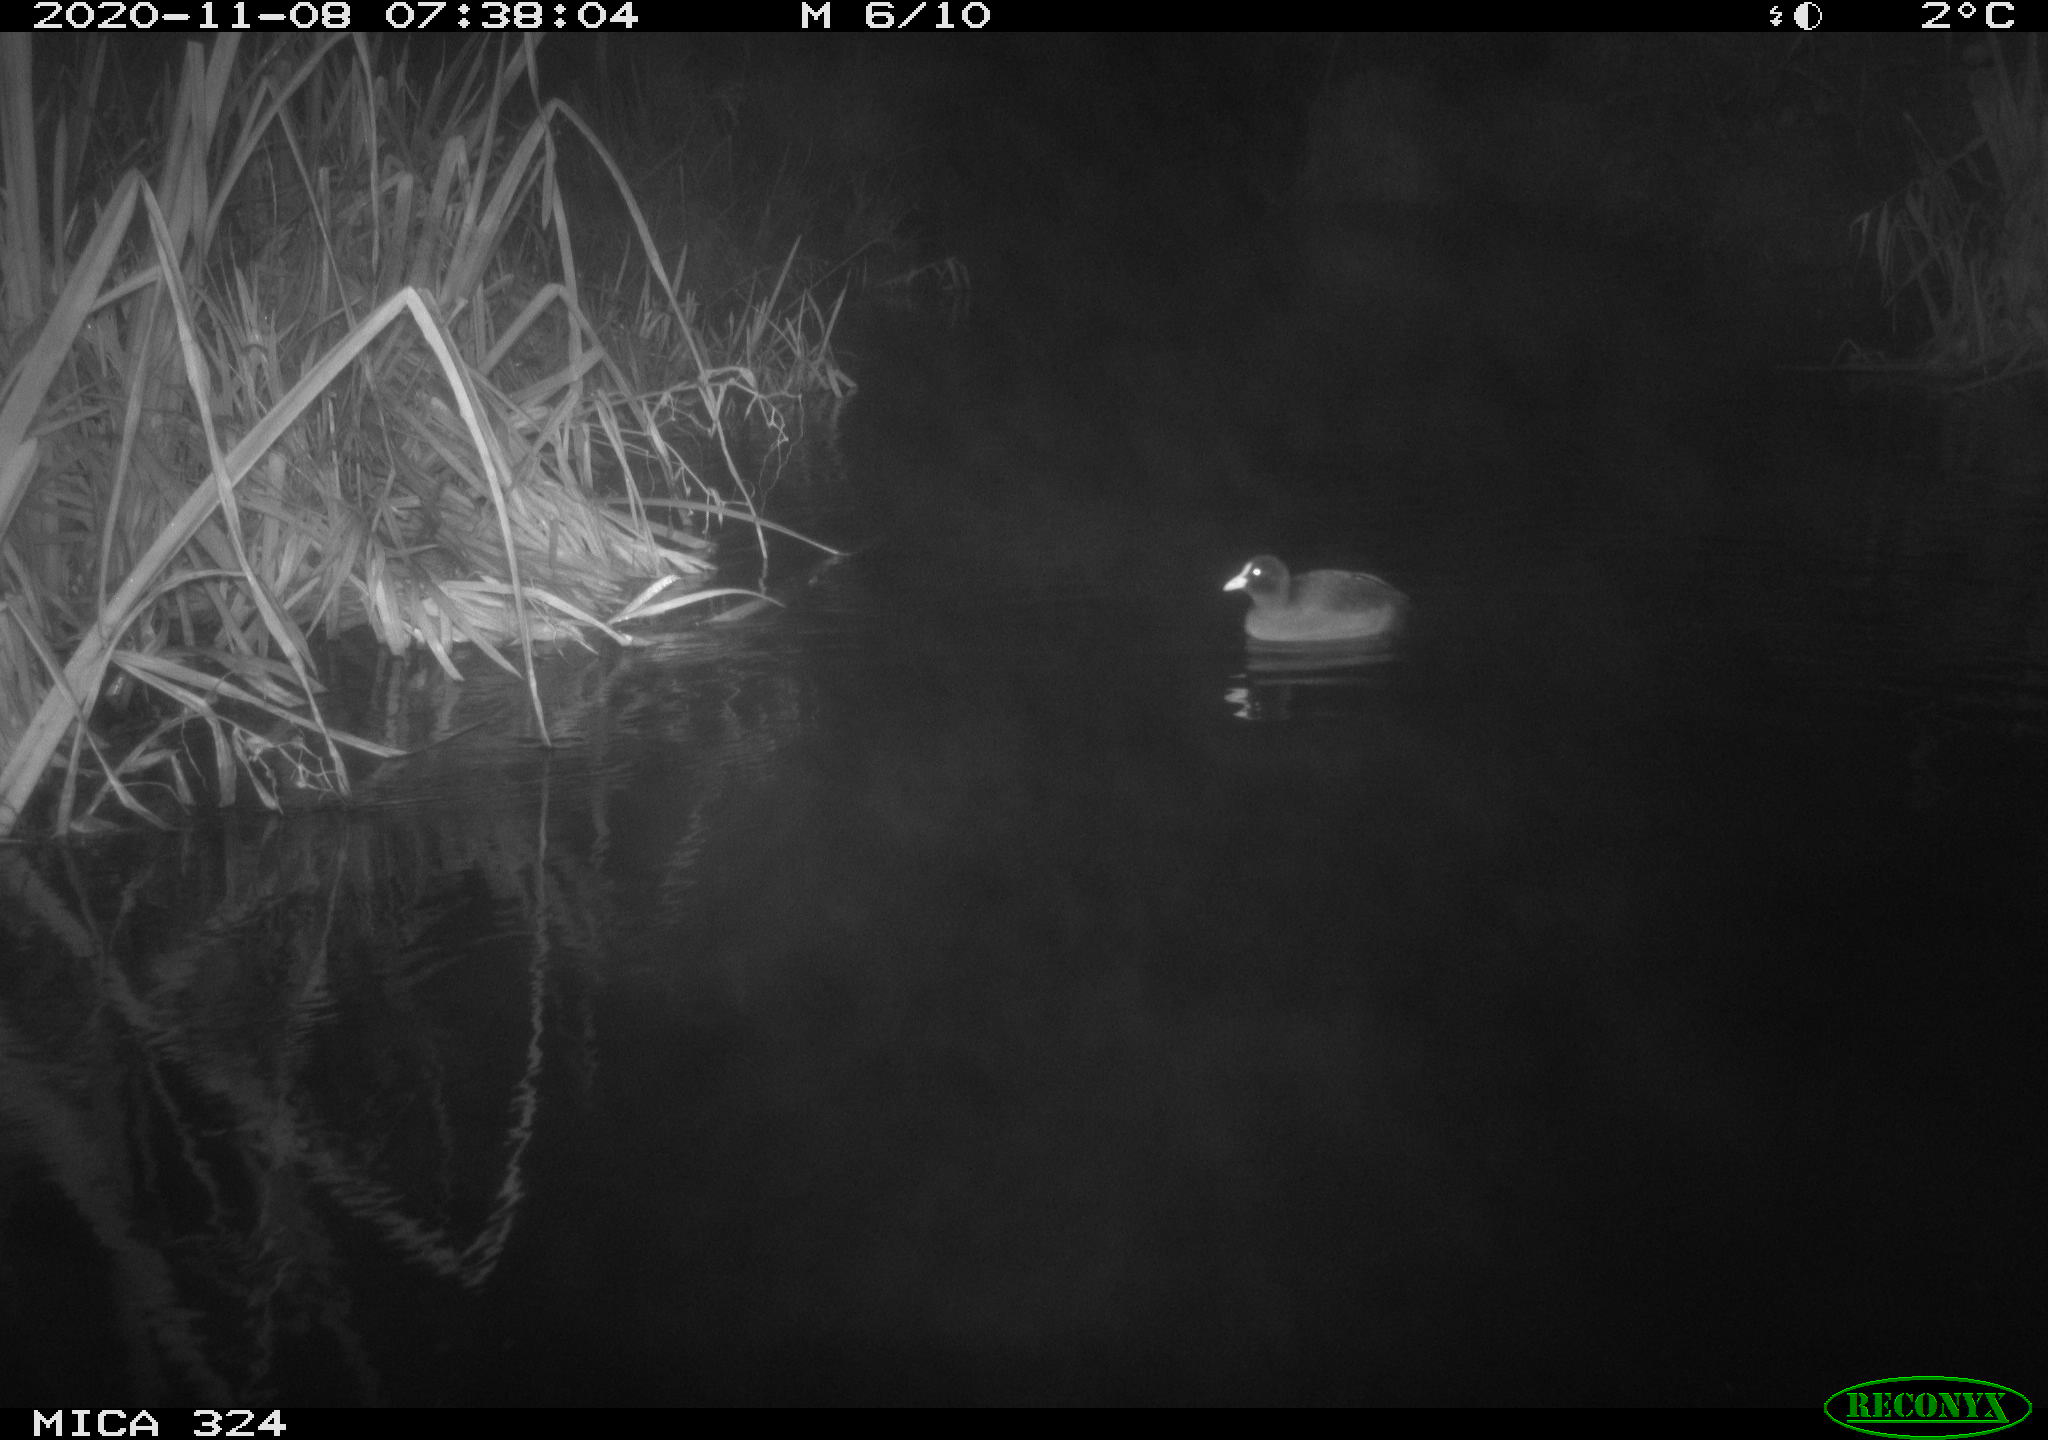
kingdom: Animalia
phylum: Chordata
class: Mammalia
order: Rodentia
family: Cricetidae
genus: Ondatra
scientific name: Ondatra zibethicus
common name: Muskrat
